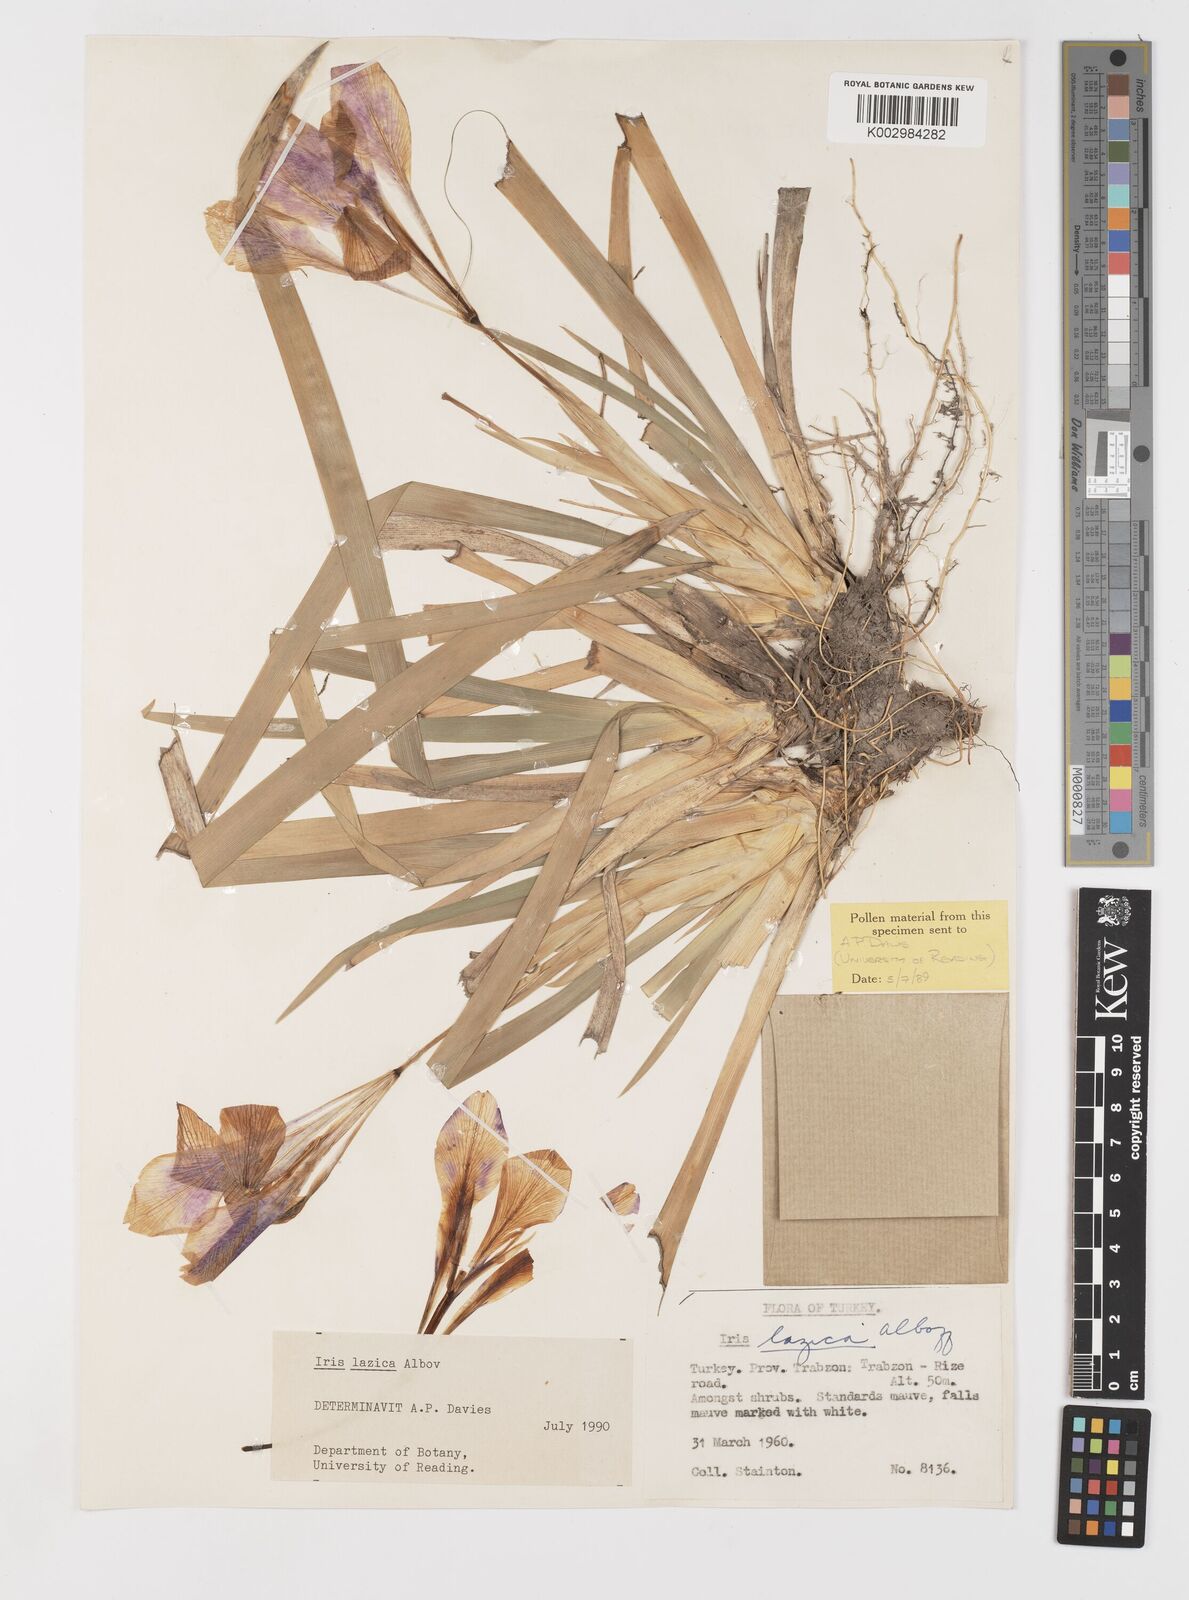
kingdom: Plantae
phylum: Tracheophyta
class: Liliopsida
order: Asparagales
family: Iridaceae
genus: Iris
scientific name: Iris lazica
